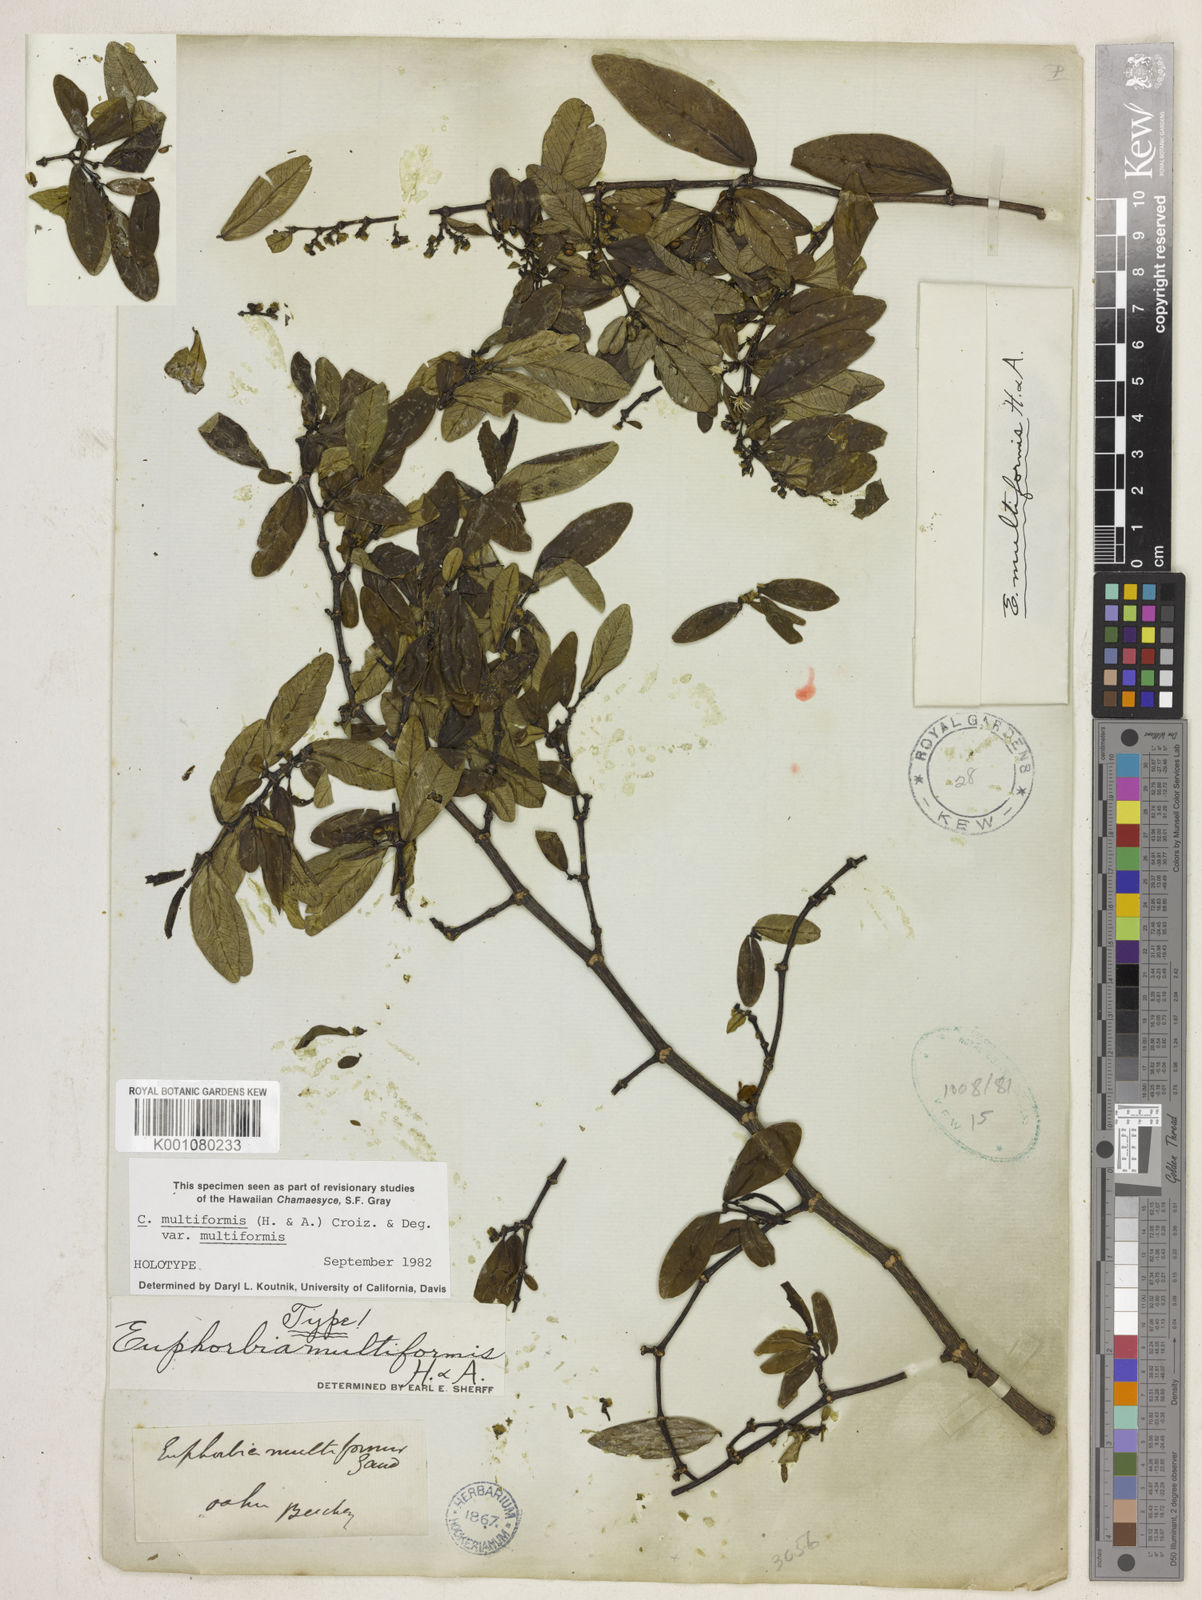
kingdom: Plantae
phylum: Tracheophyta
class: Magnoliopsida
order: Malpighiales
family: Euphorbiaceae
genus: Euphorbia
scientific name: Euphorbia
